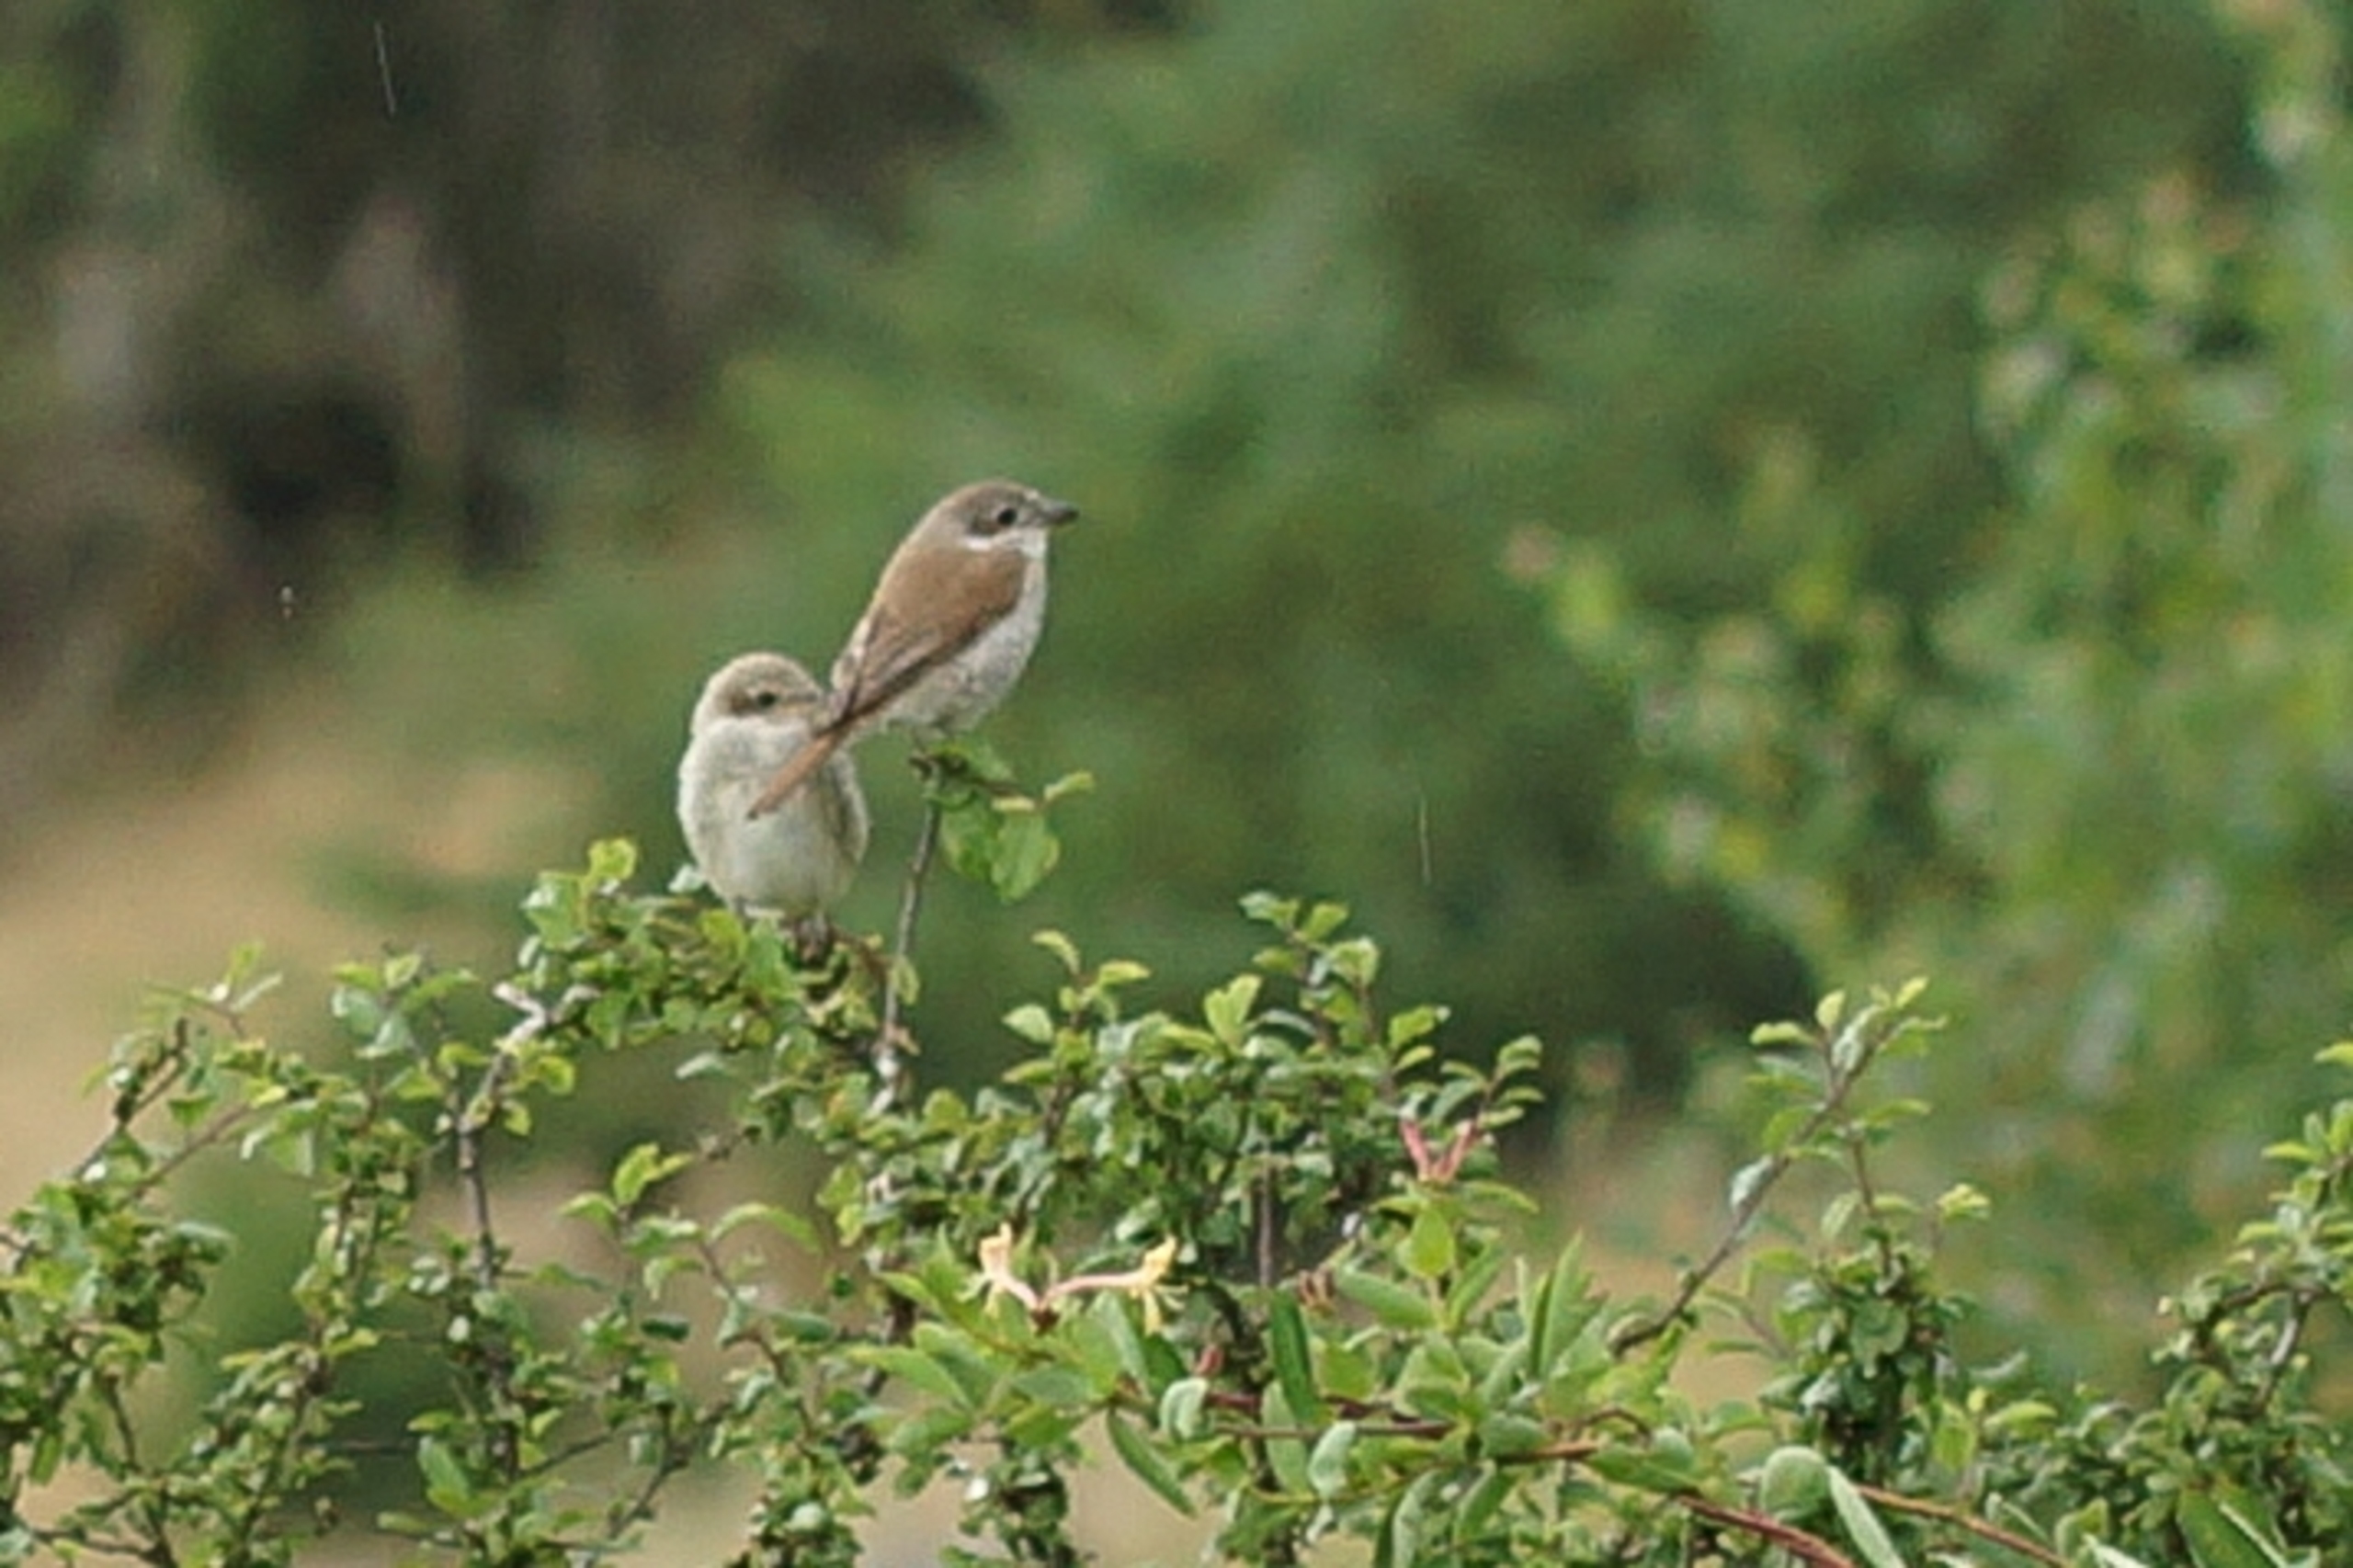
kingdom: Animalia
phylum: Chordata
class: Aves
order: Passeriformes
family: Laniidae
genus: Lanius
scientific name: Lanius collurio
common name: Rødrygget tornskade
